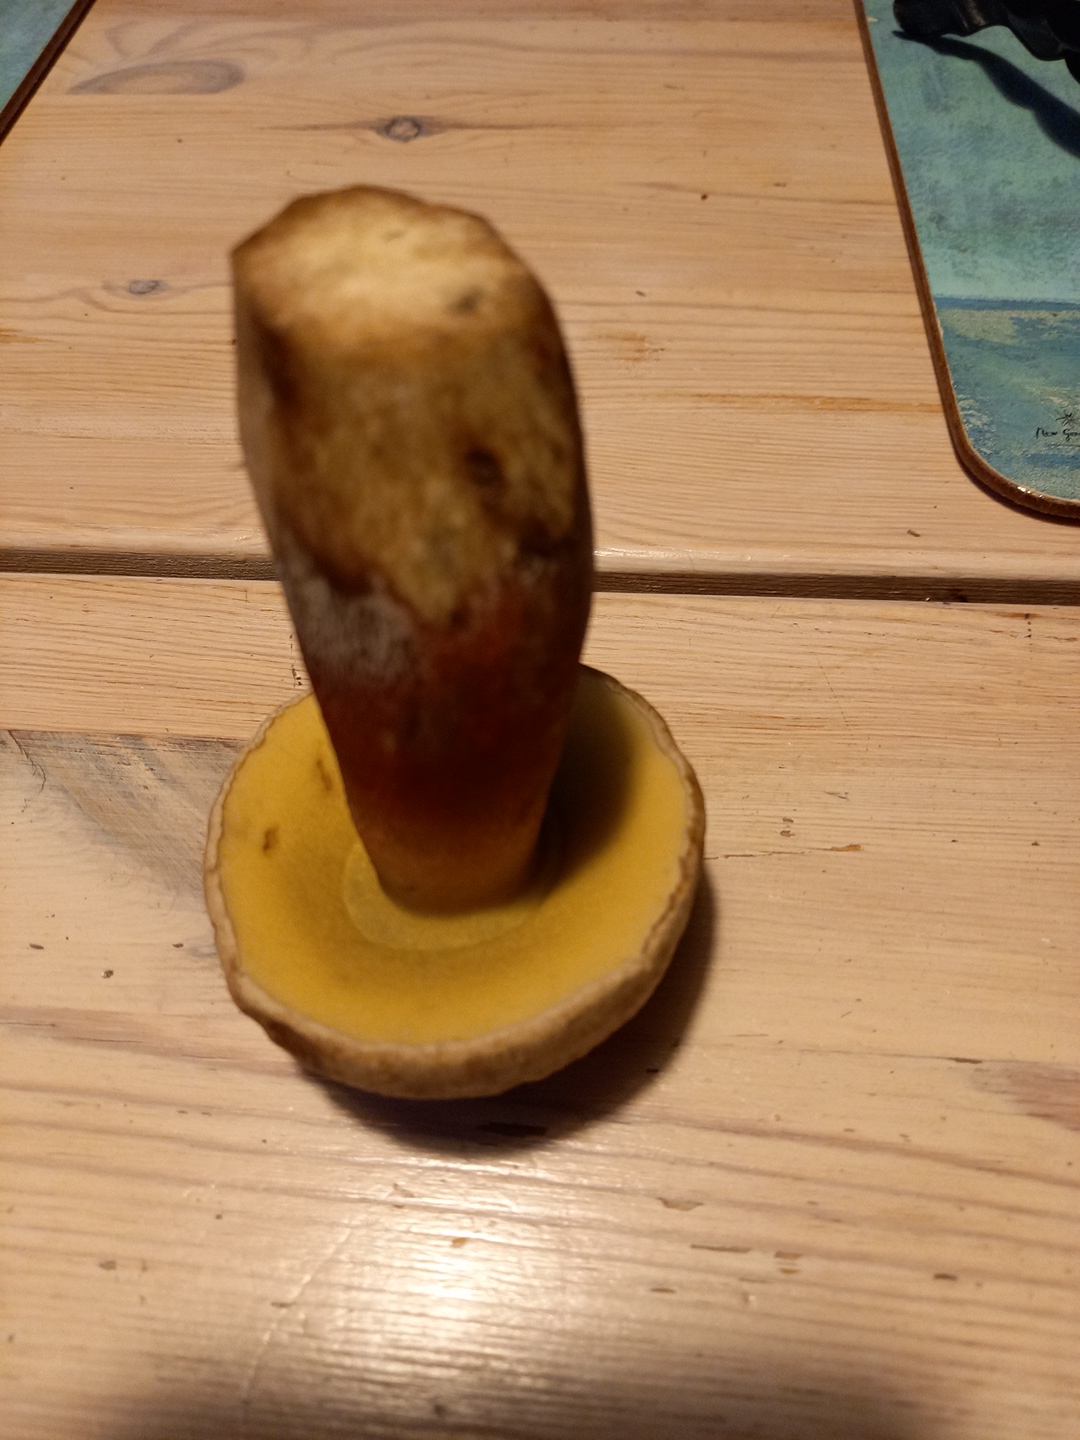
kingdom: Fungi
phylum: Basidiomycota
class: Agaricomycetes
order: Boletales
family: Boletaceae
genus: Xerocomus
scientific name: Xerocomus
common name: filtrørhat
